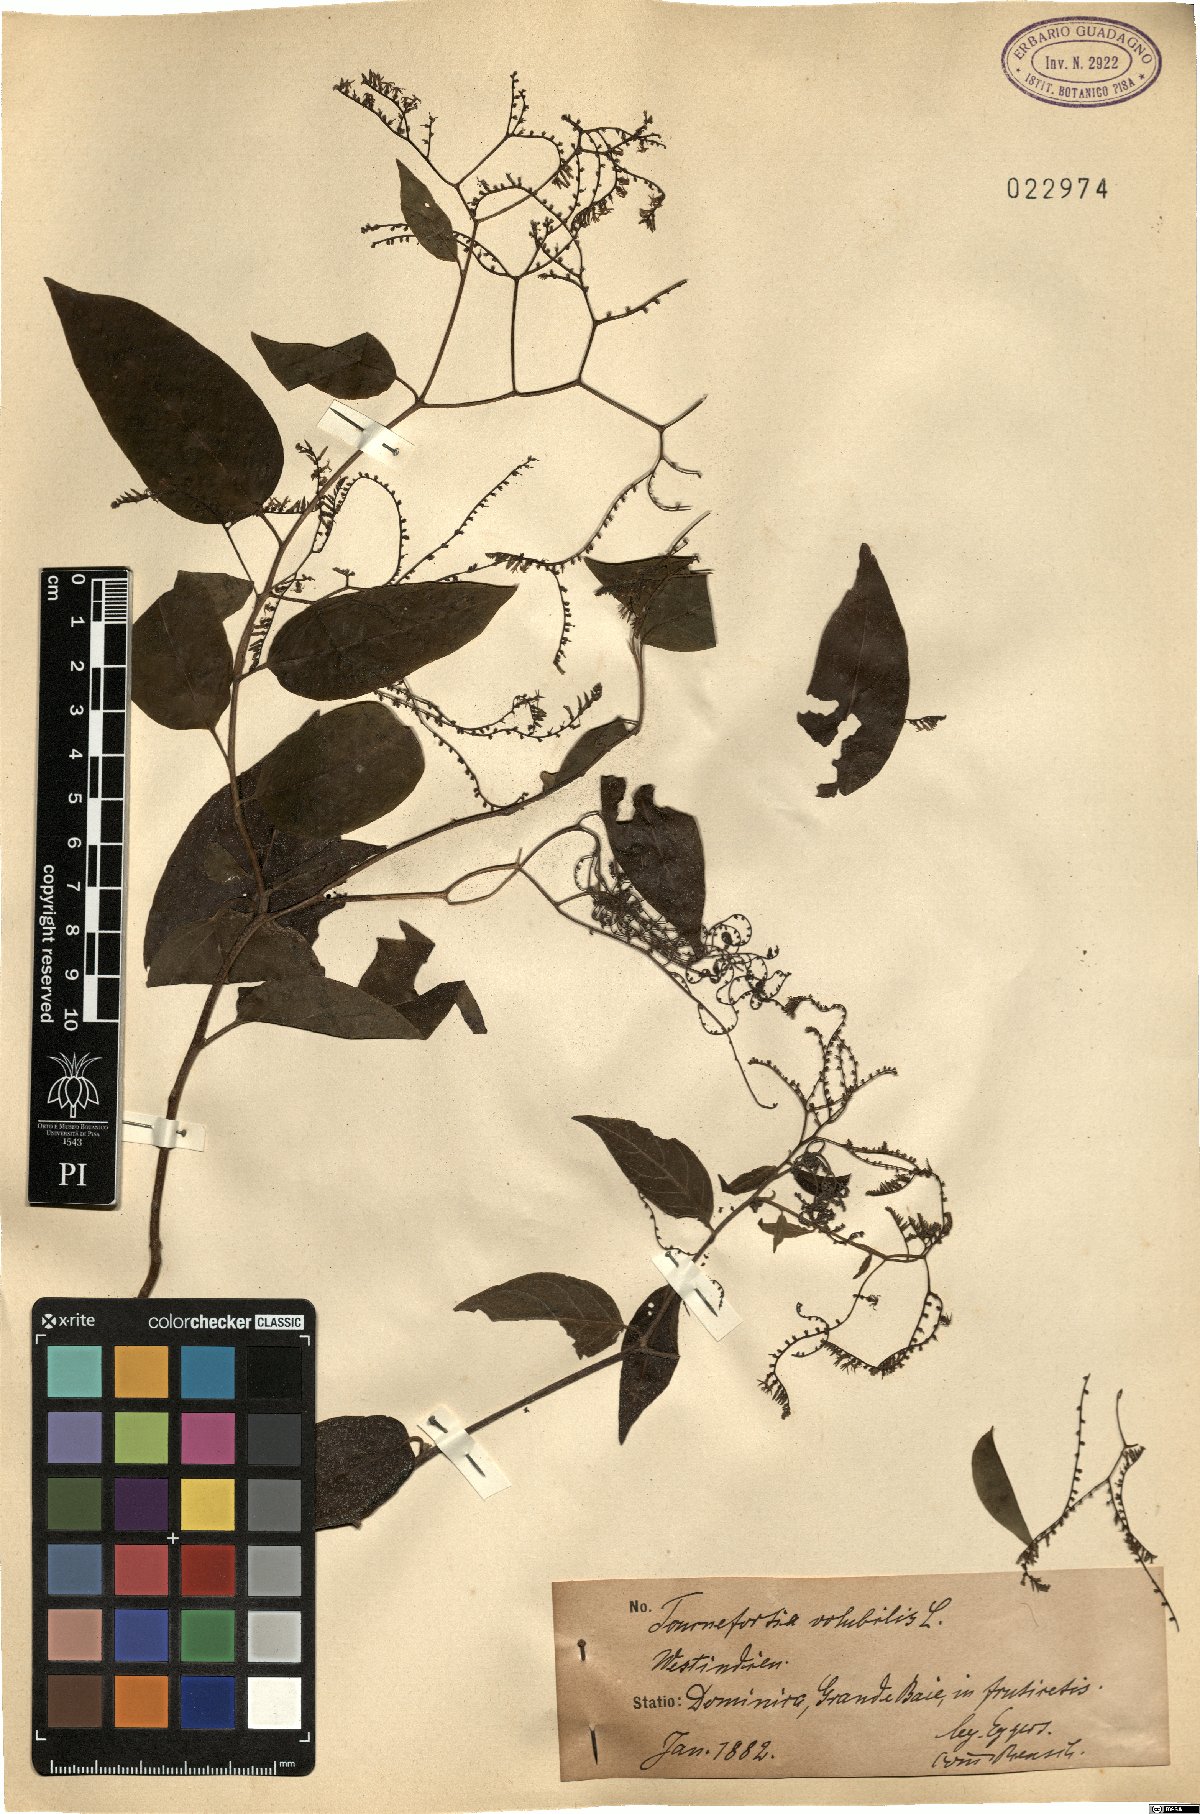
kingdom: Plantae
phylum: Tracheophyta
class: Magnoliopsida
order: Boraginales
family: Heliotropiaceae
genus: Myriopus
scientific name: Myriopus volubilis
